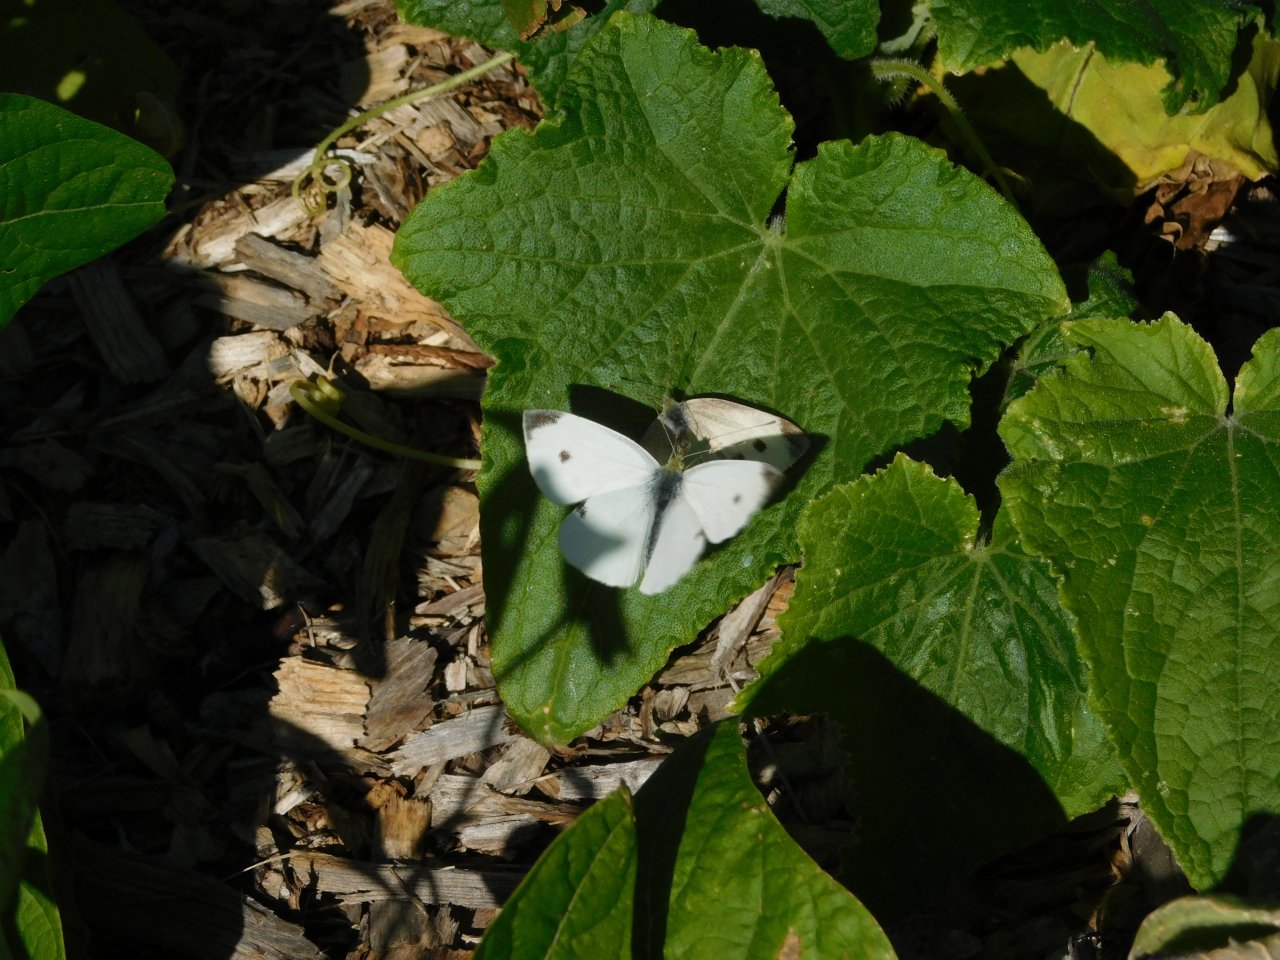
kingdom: Animalia
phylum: Arthropoda
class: Insecta
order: Lepidoptera
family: Pieridae
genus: Pieris
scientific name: Pieris rapae
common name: Cabbage White
